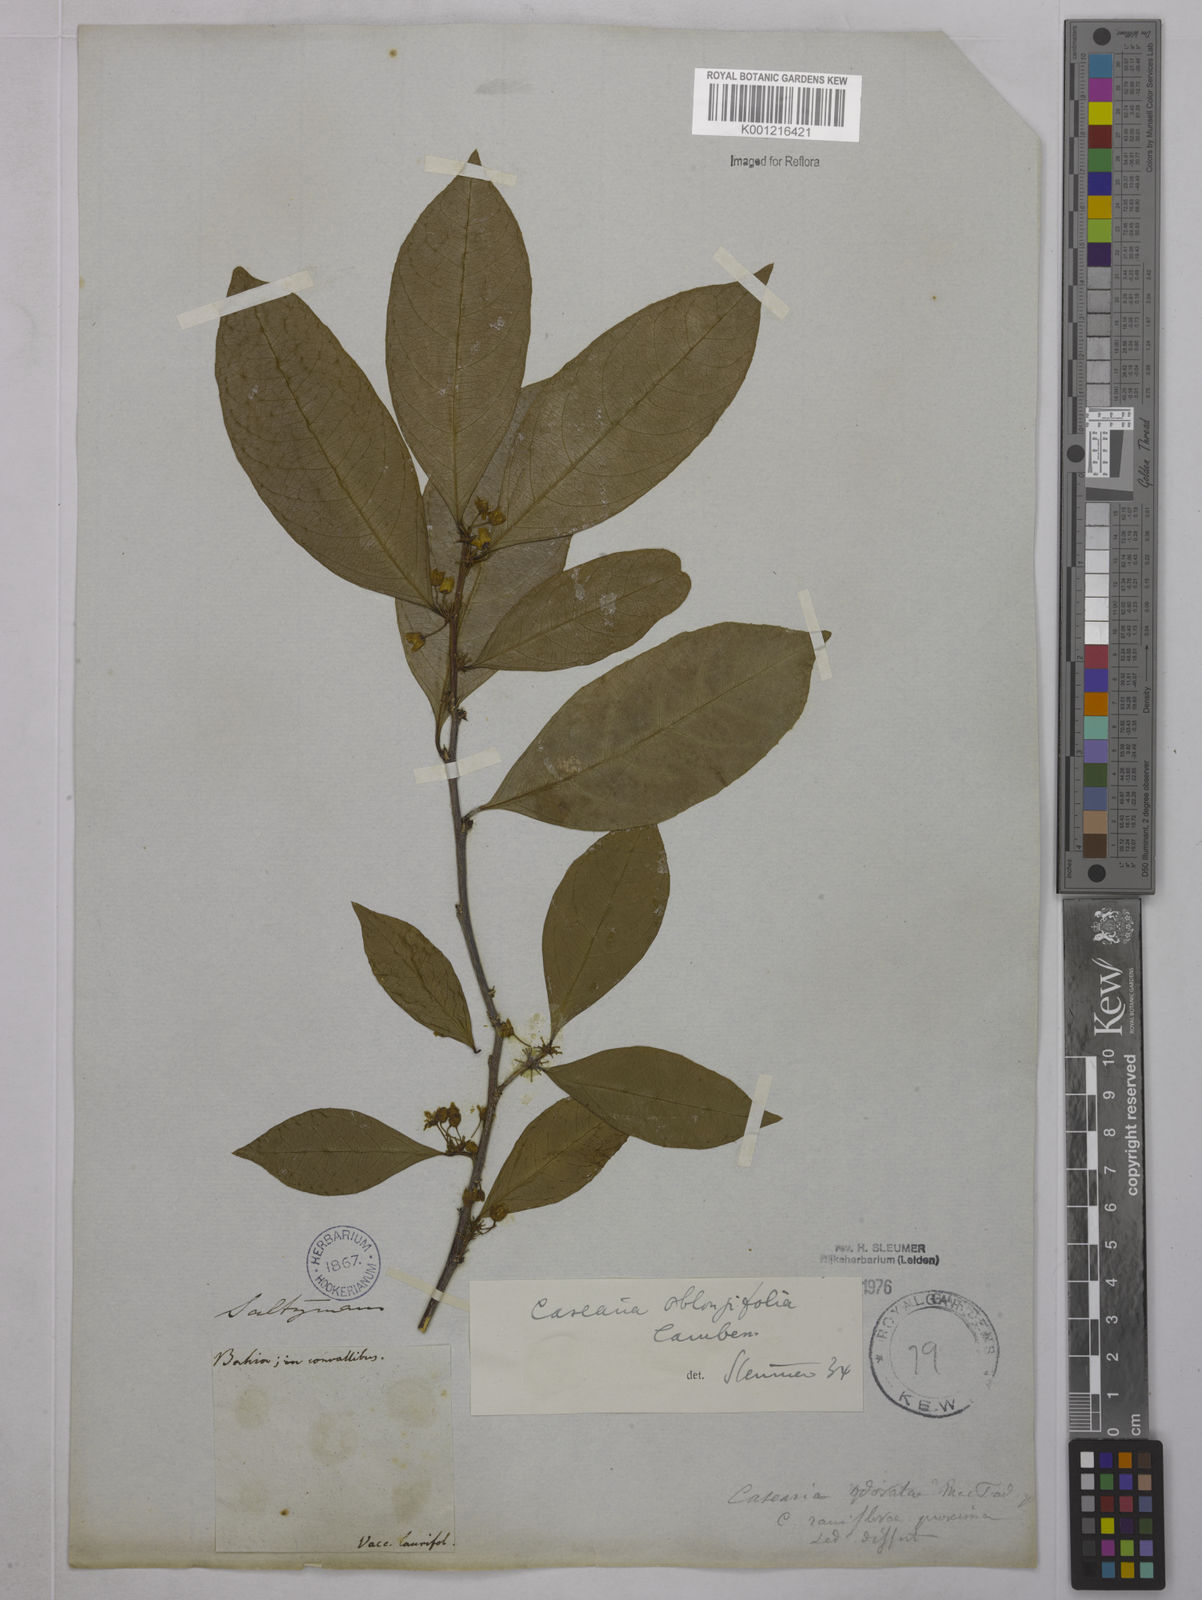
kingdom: Plantae
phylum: Tracheophyta
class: Magnoliopsida
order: Malpighiales
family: Salicaceae
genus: Casearia
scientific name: Casearia oblongifolia
